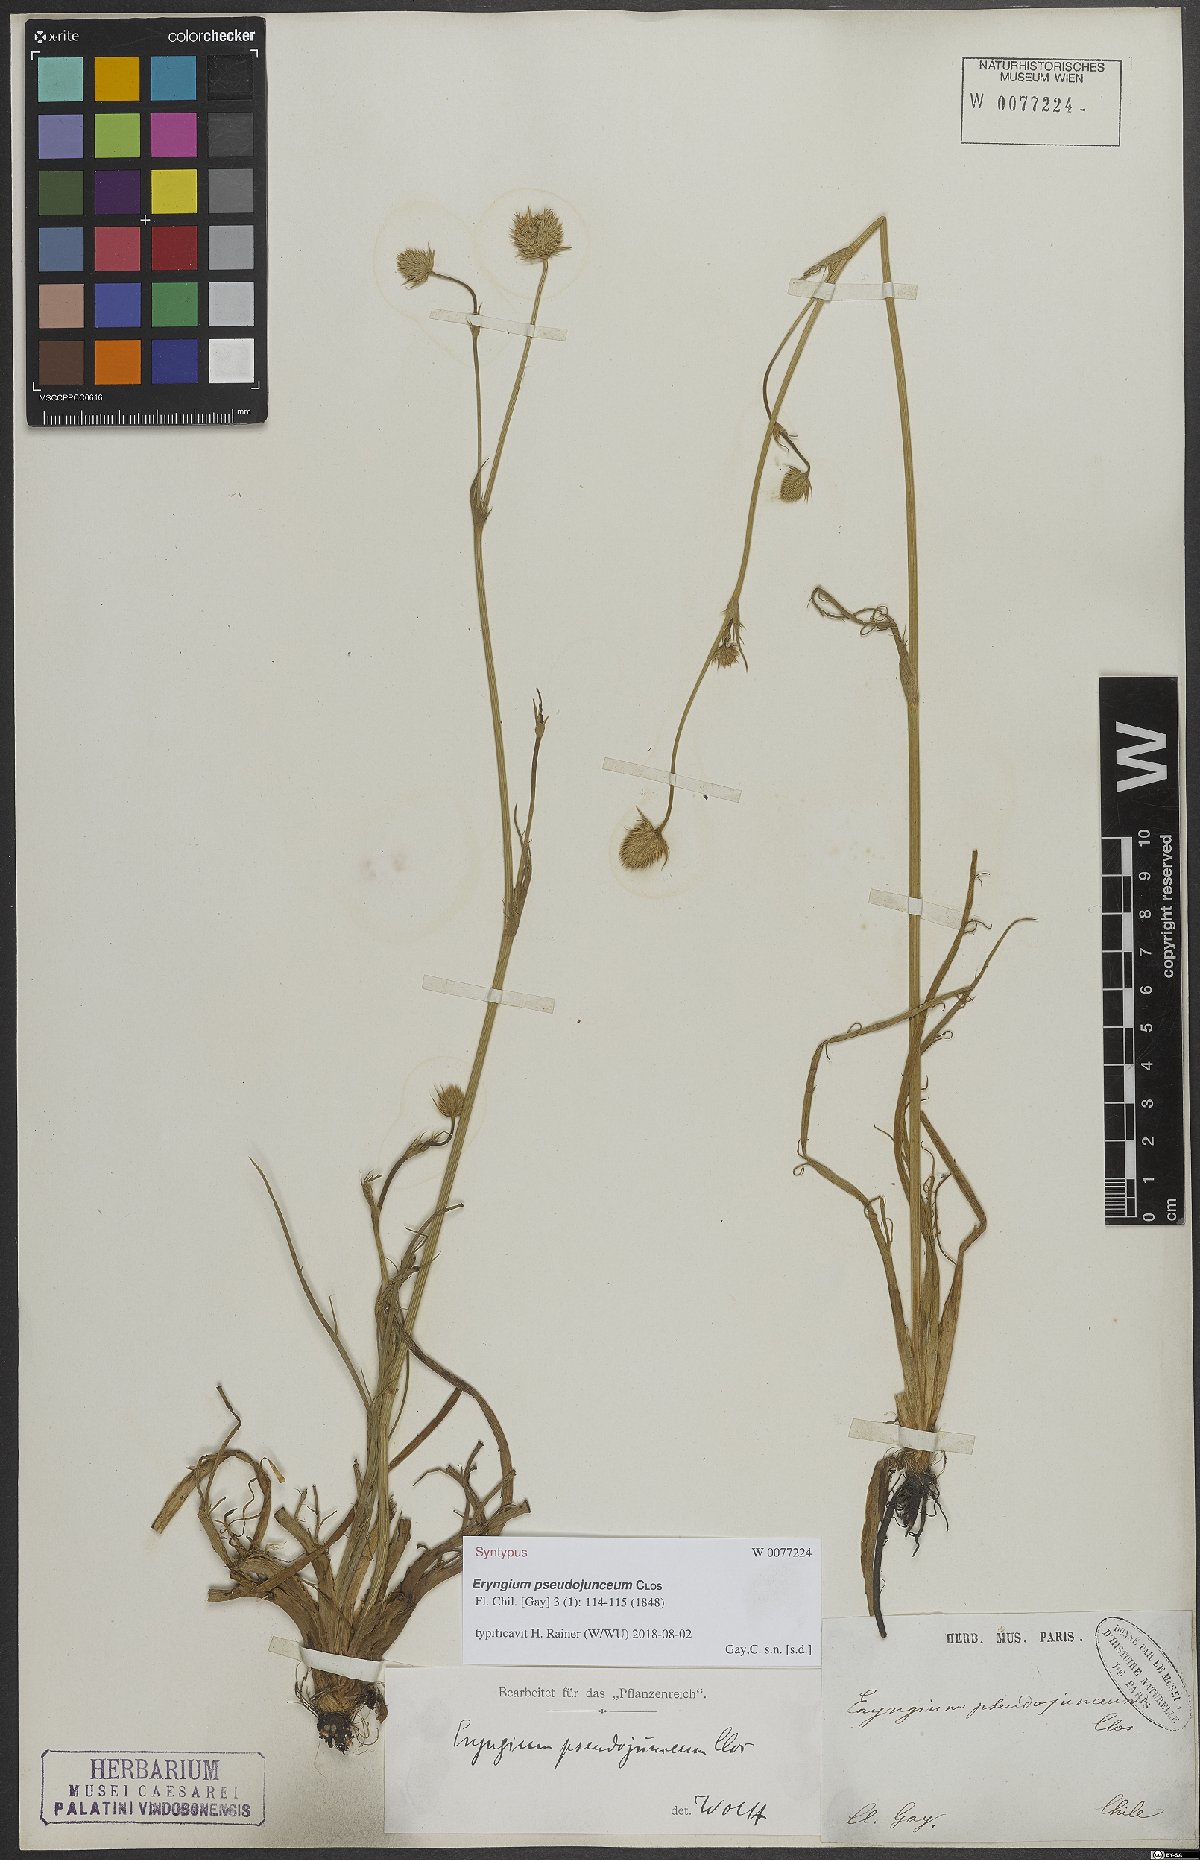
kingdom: Plantae
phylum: Tracheophyta
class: Magnoliopsida
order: Apiales
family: Apiaceae
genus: Eryngium
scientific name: Eryngium pseudojunceum
